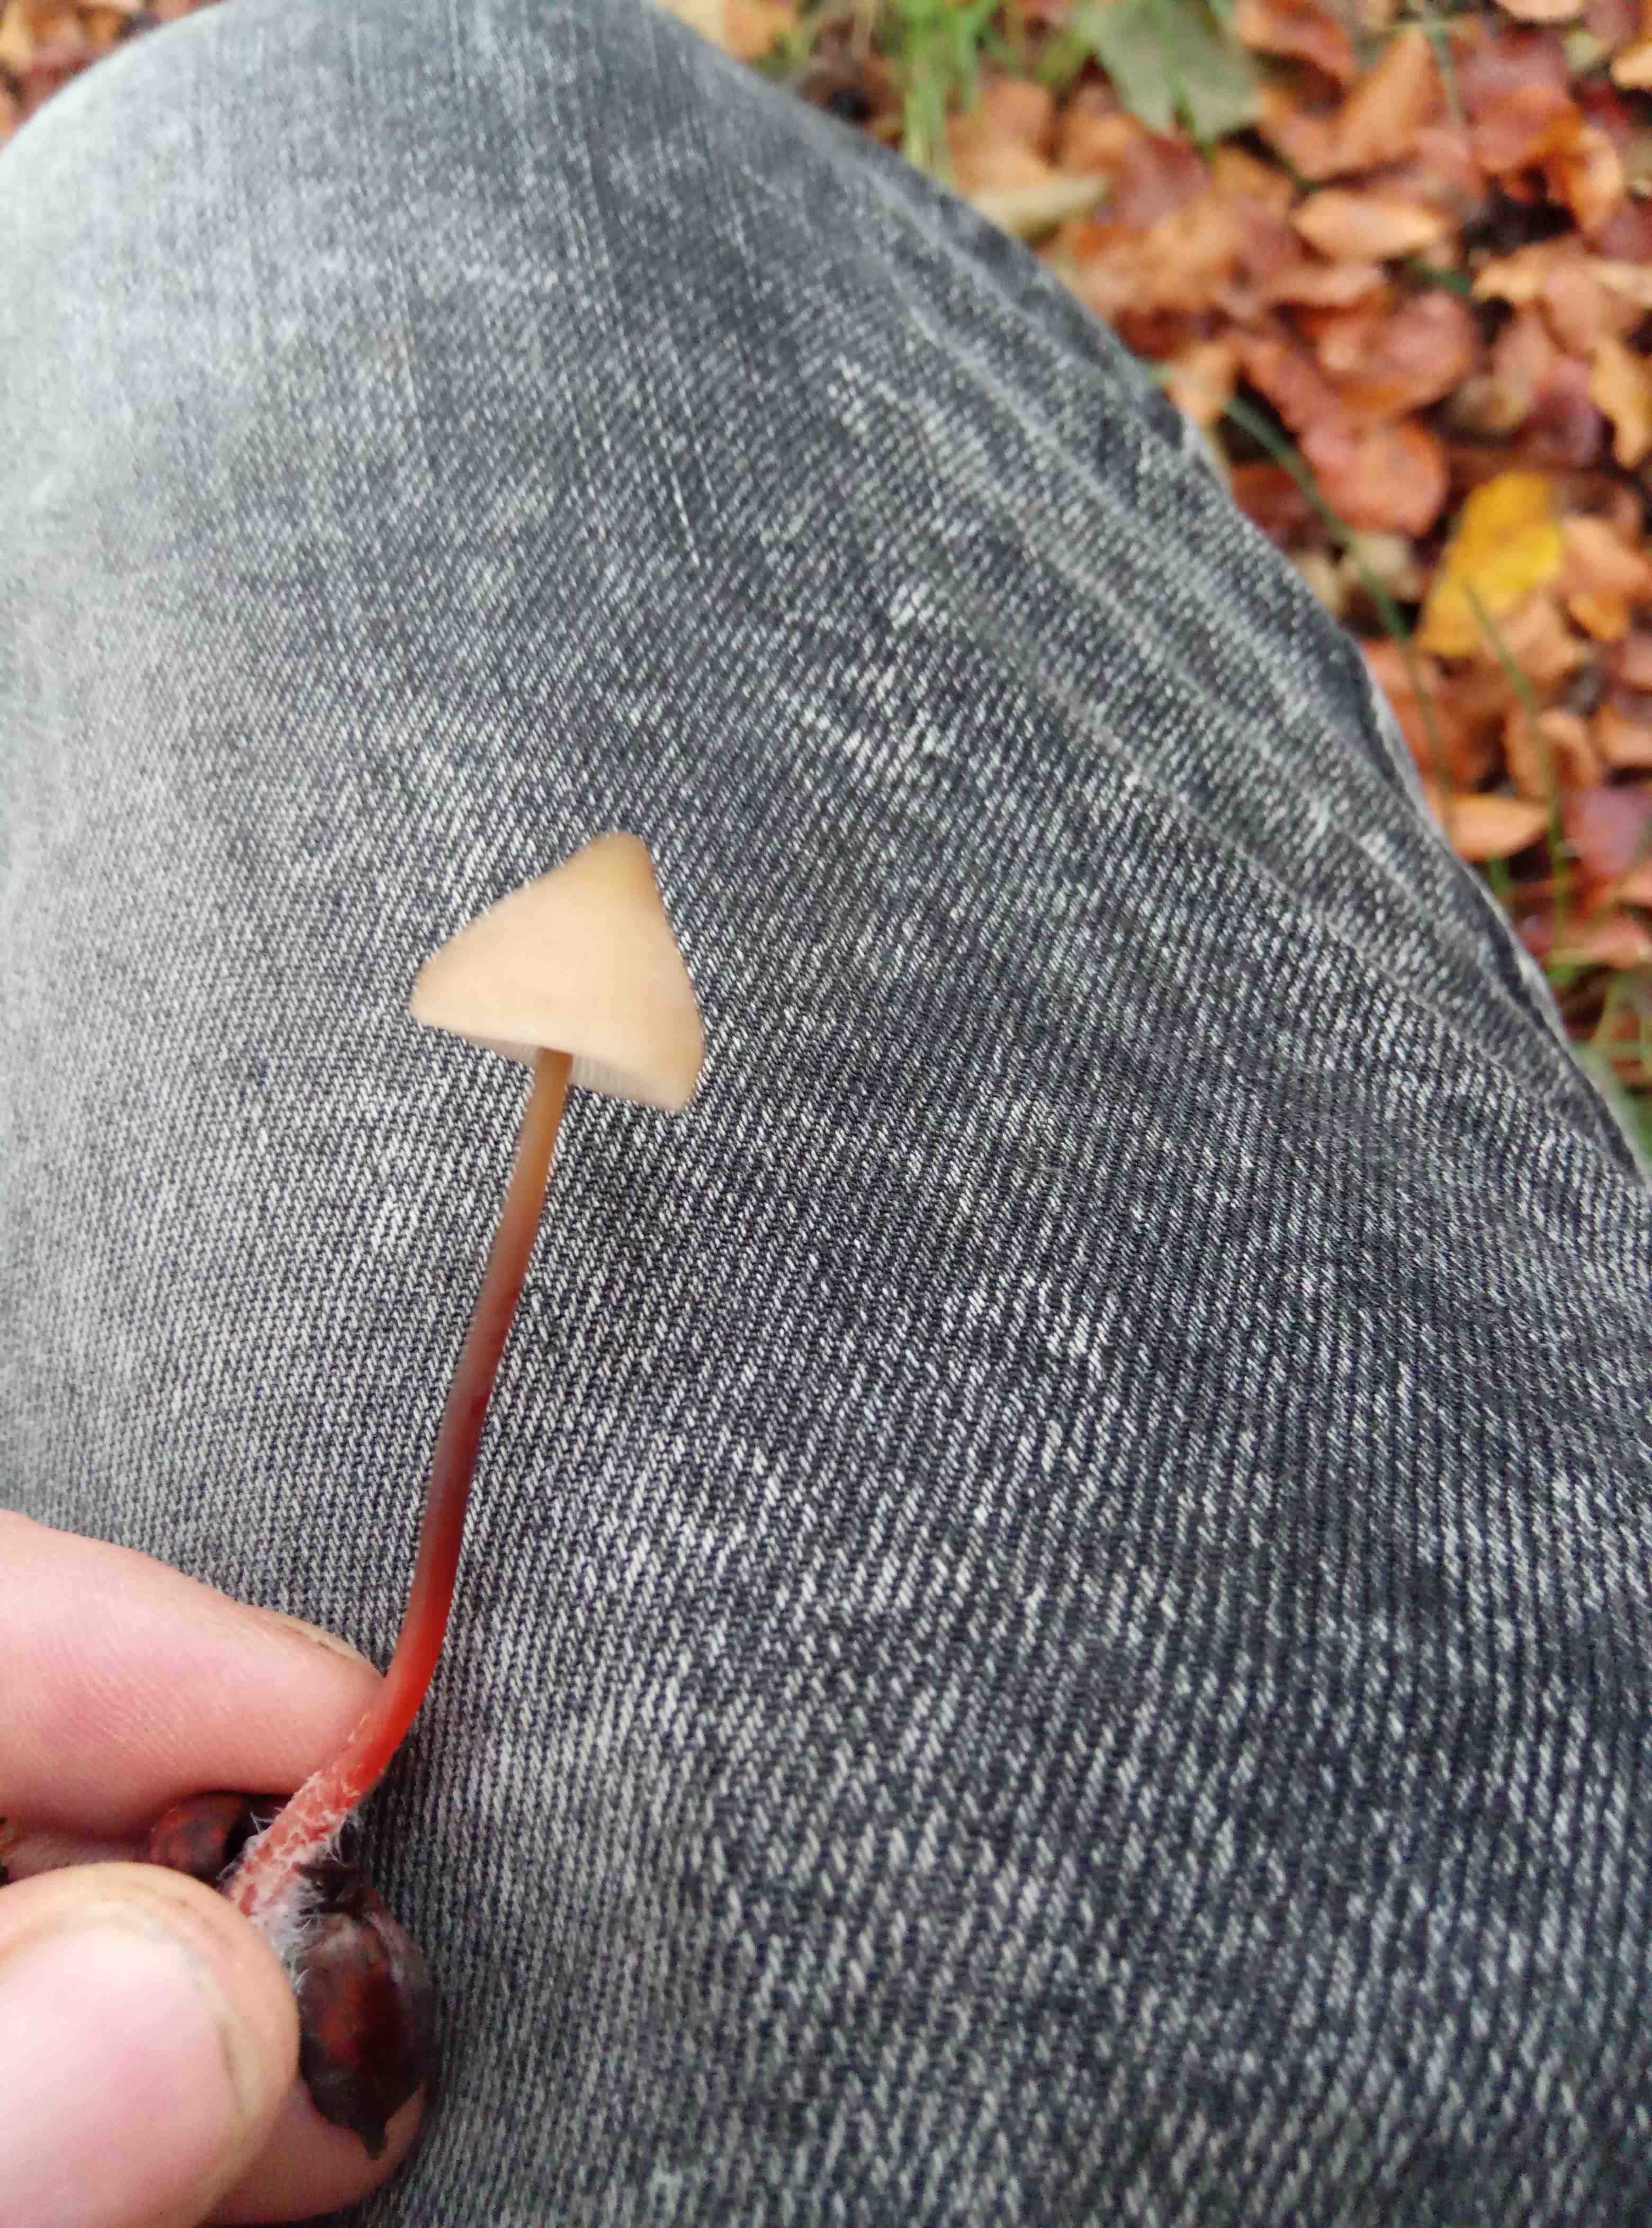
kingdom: Fungi
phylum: Basidiomycota
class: Agaricomycetes
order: Agaricales
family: Mycenaceae
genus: Mycena
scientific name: Mycena crocata
